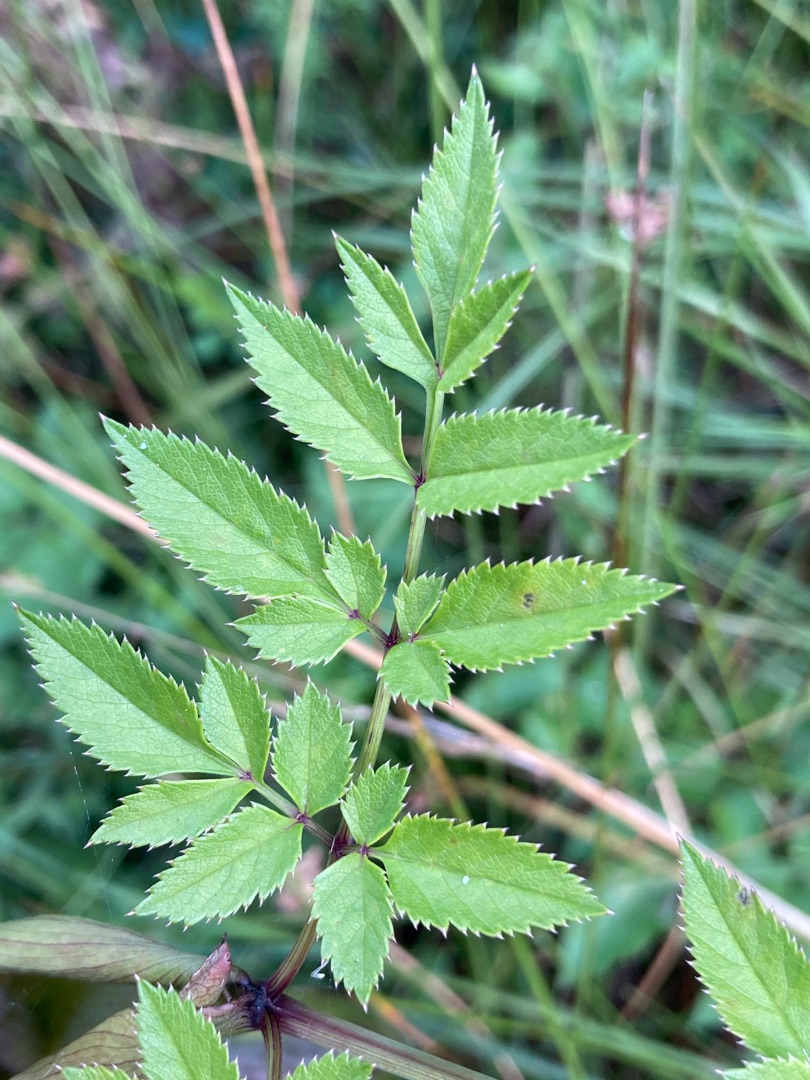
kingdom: Plantae
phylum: Tracheophyta
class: Magnoliopsida
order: Apiales
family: Apiaceae
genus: Angelica
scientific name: Angelica sylvestris
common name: Angelik
